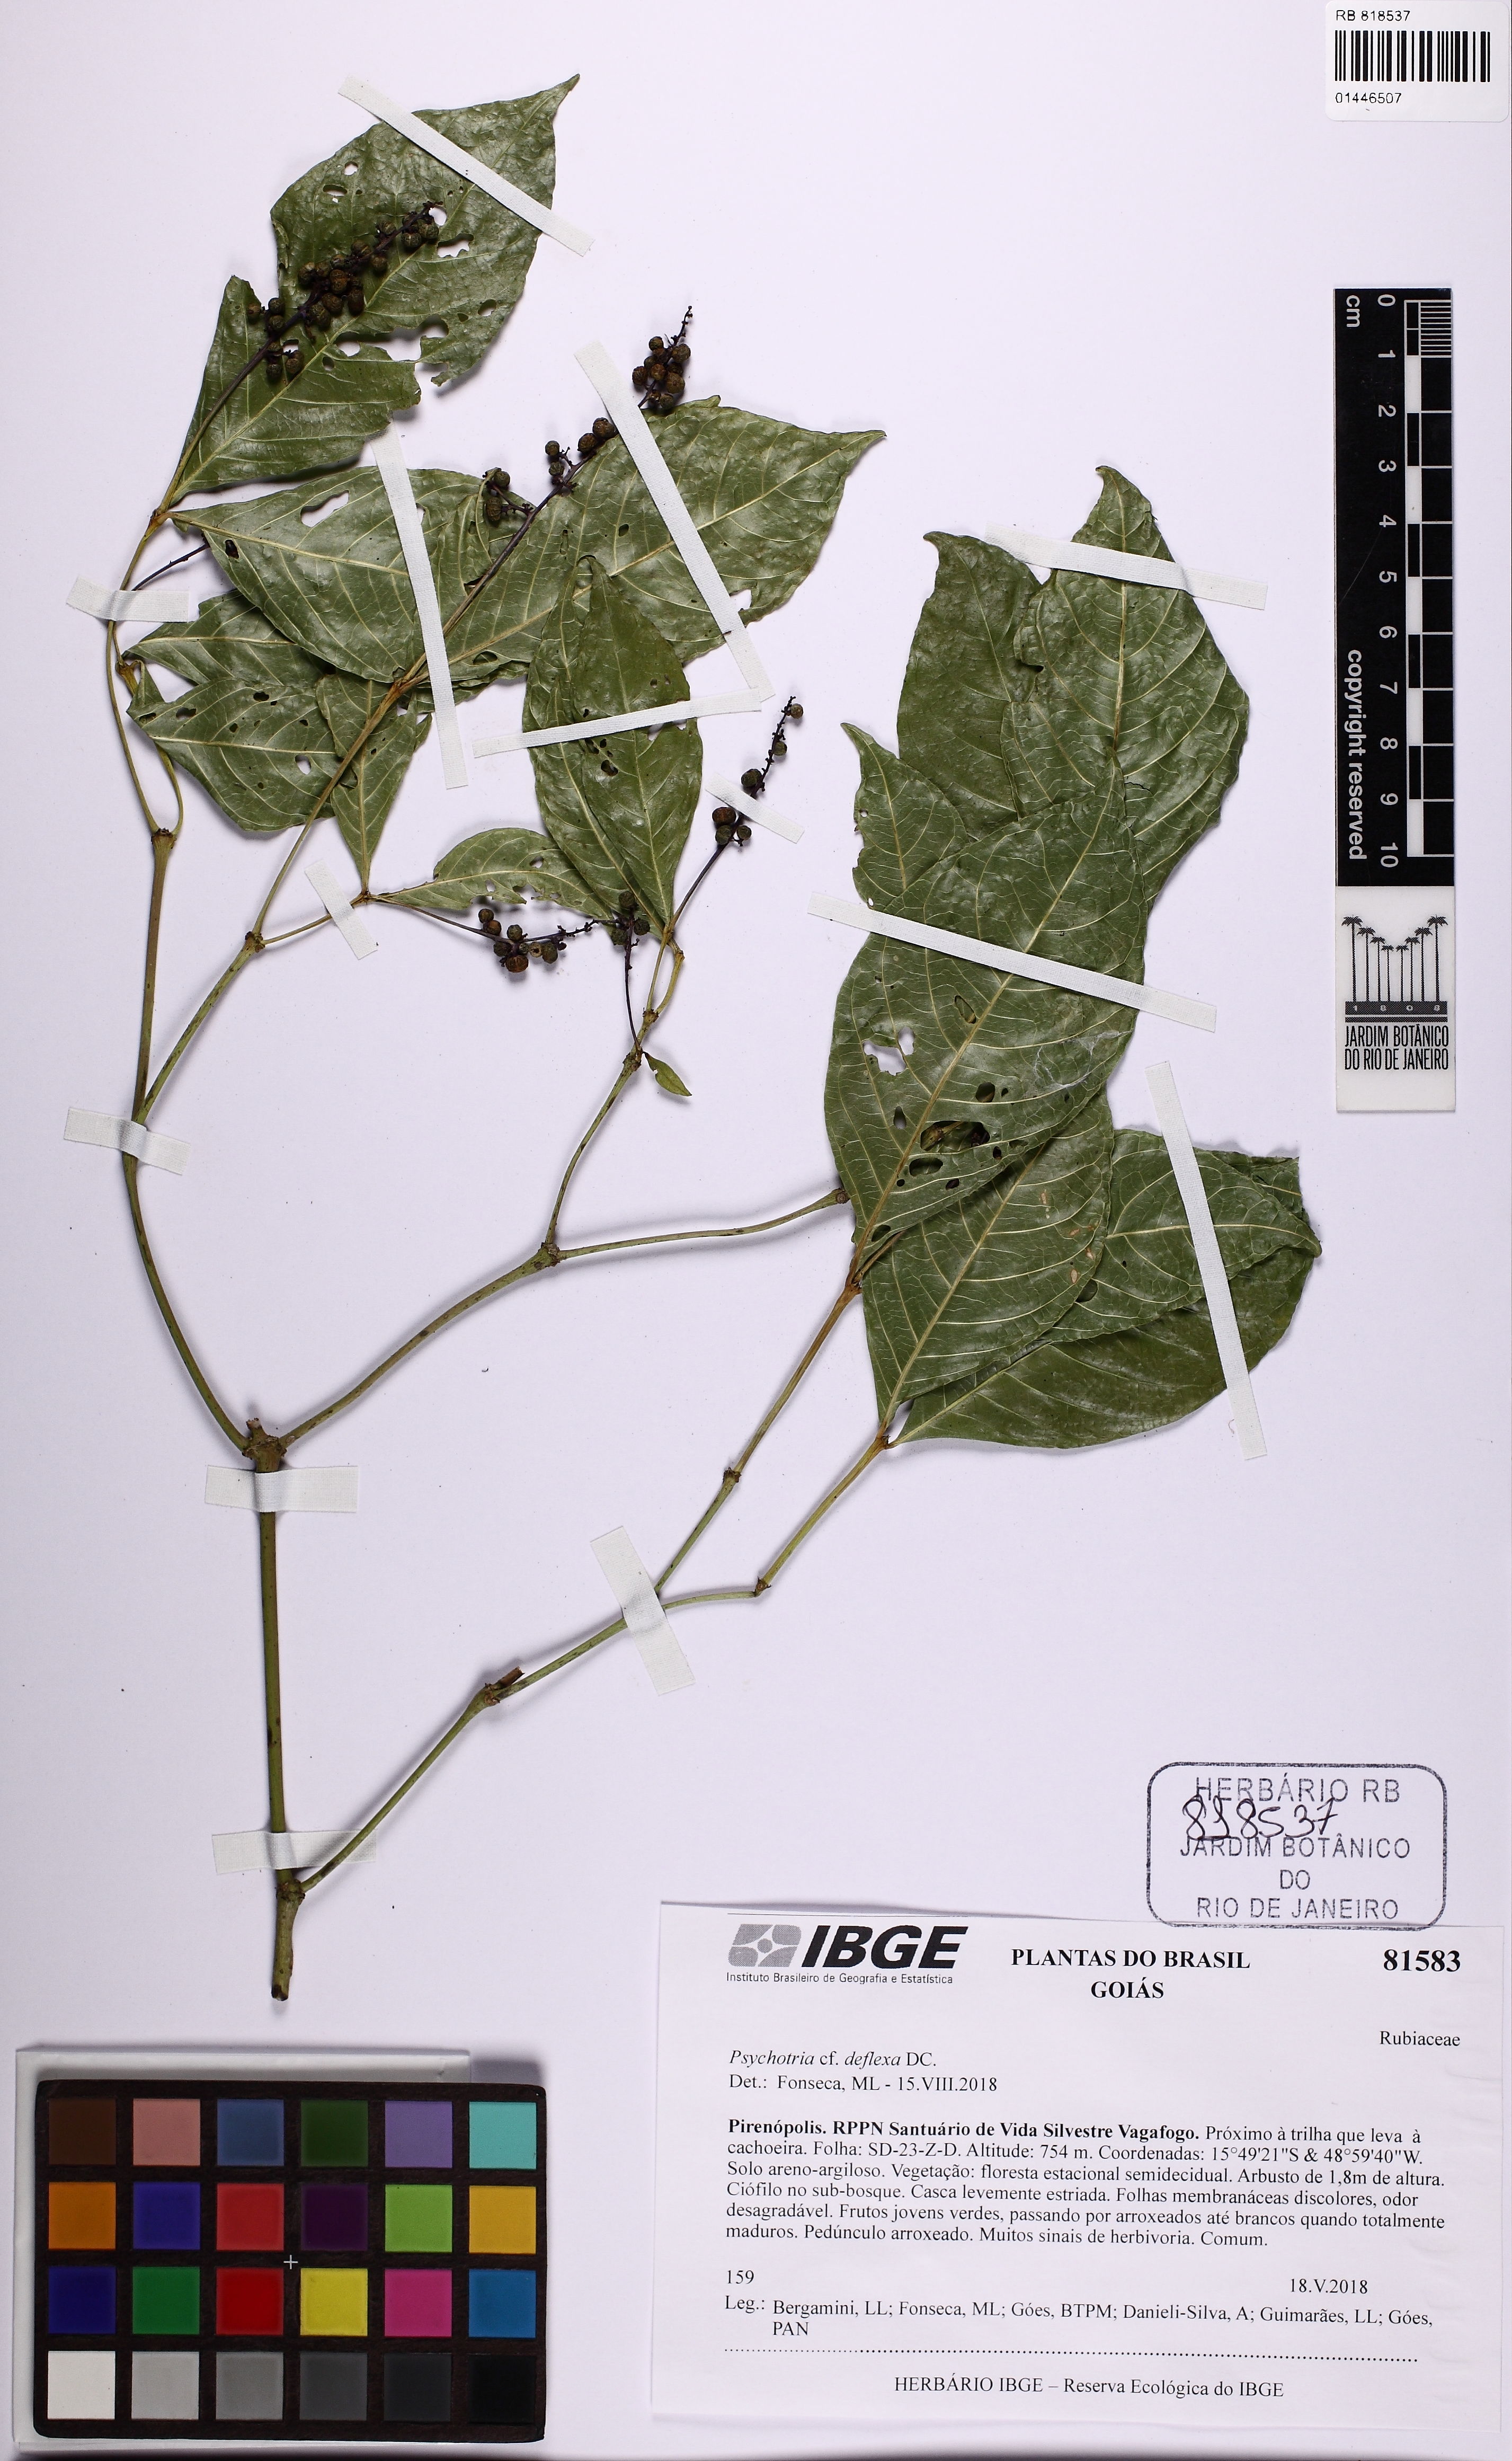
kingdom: Plantae
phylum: Tracheophyta
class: Magnoliopsida
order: Gentianales
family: Rubiaceae
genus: Palicourea
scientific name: Palicourea deflexa
